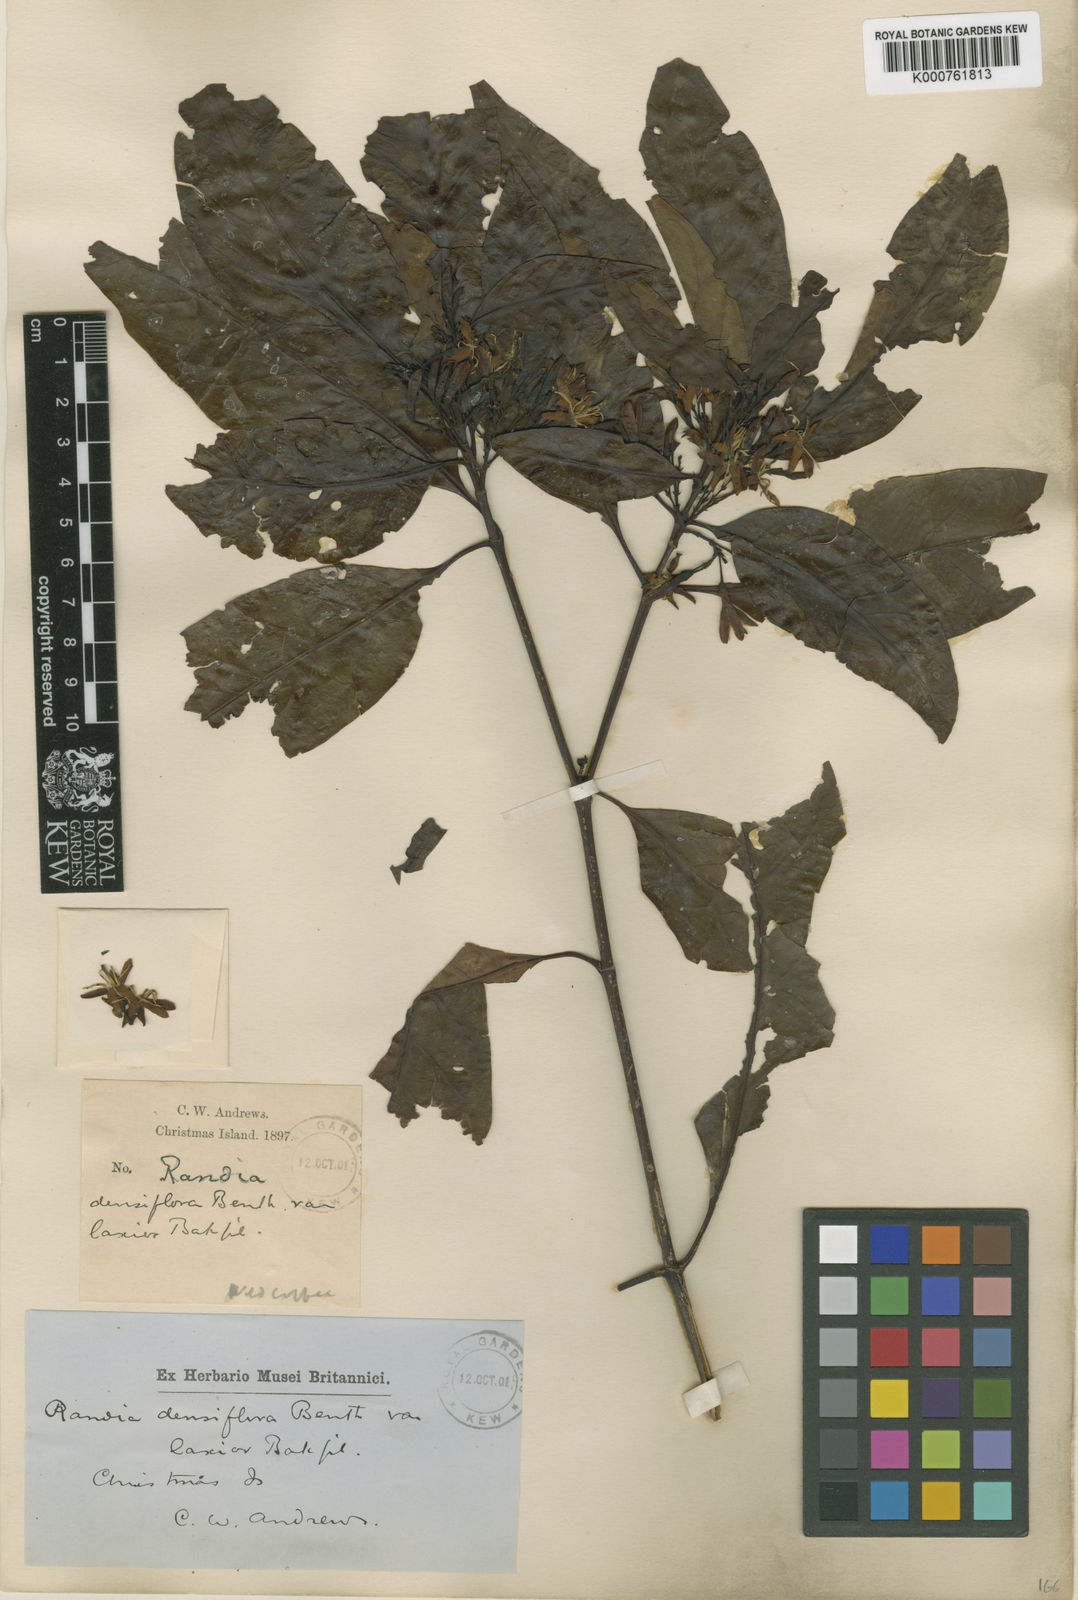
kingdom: Plantae
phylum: Tracheophyta
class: Magnoliopsida
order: Gentianales
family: Rubiaceae
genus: Aidia
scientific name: Aidia racemosa
